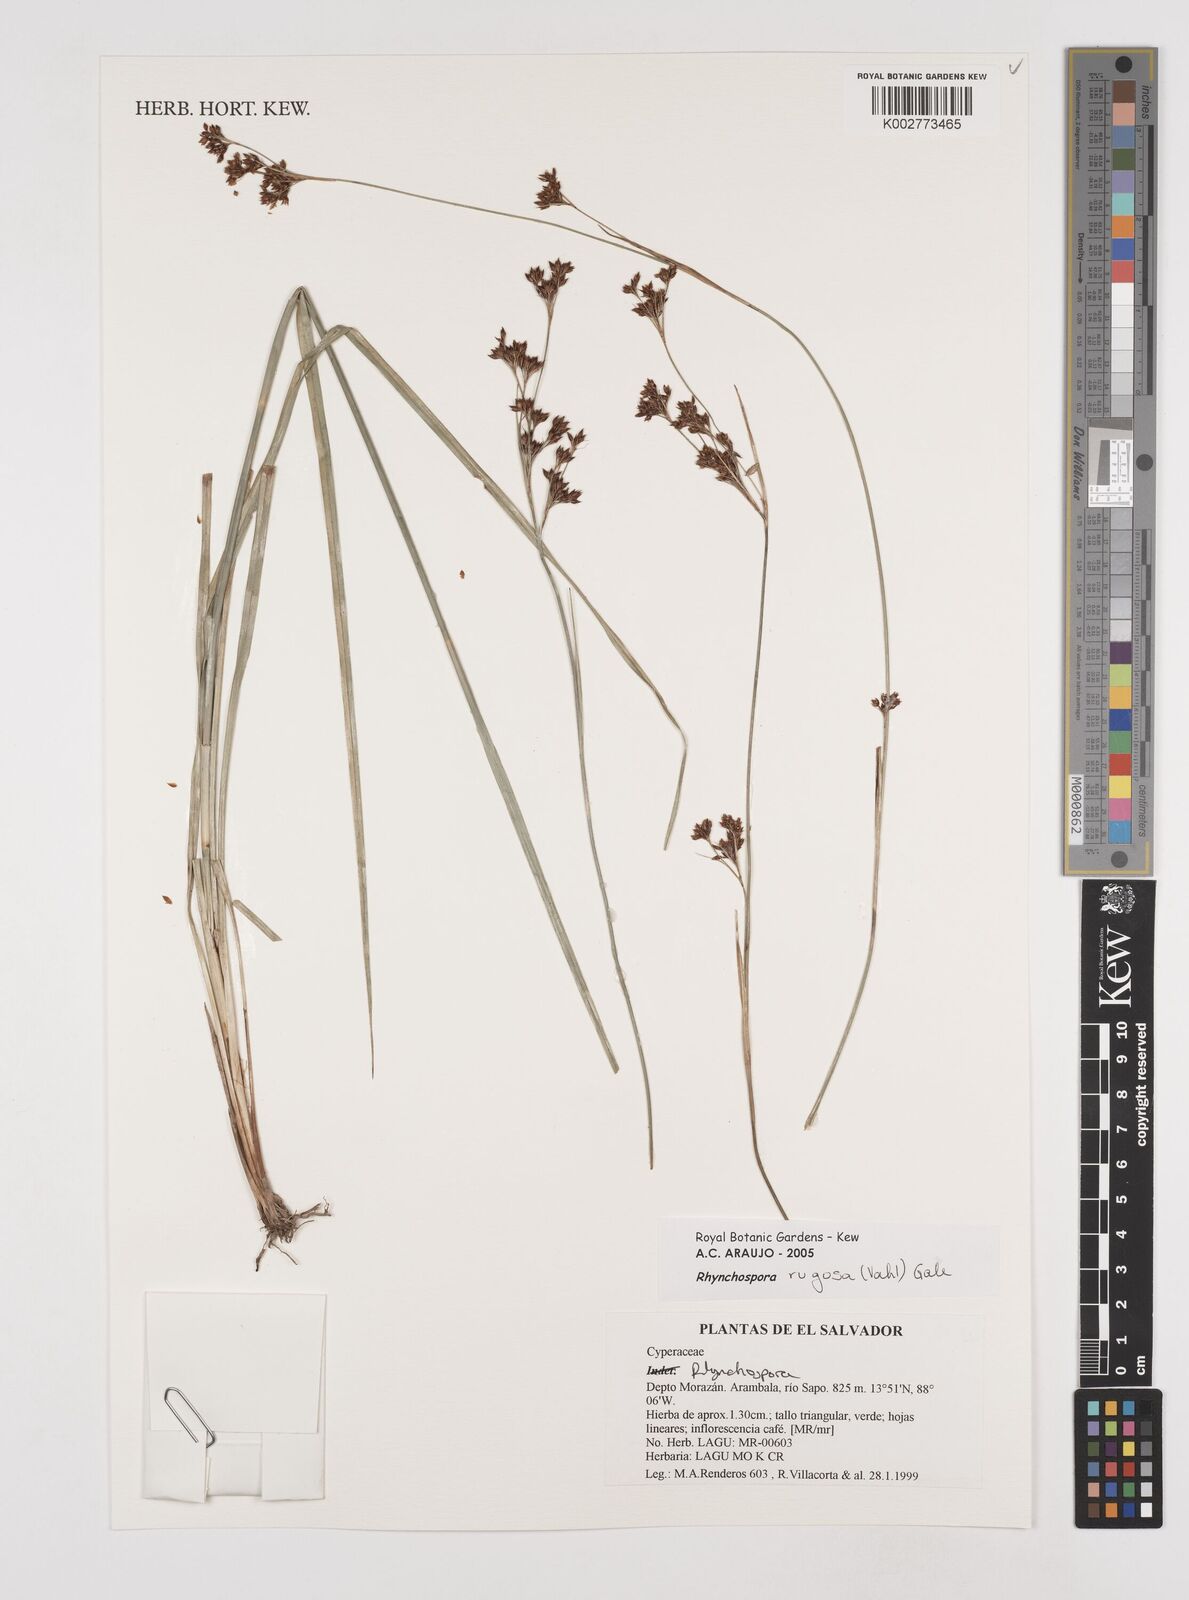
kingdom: Plantae
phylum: Tracheophyta
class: Liliopsida
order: Poales
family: Cyperaceae
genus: Rhynchospora
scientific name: Rhynchospora rugosa
